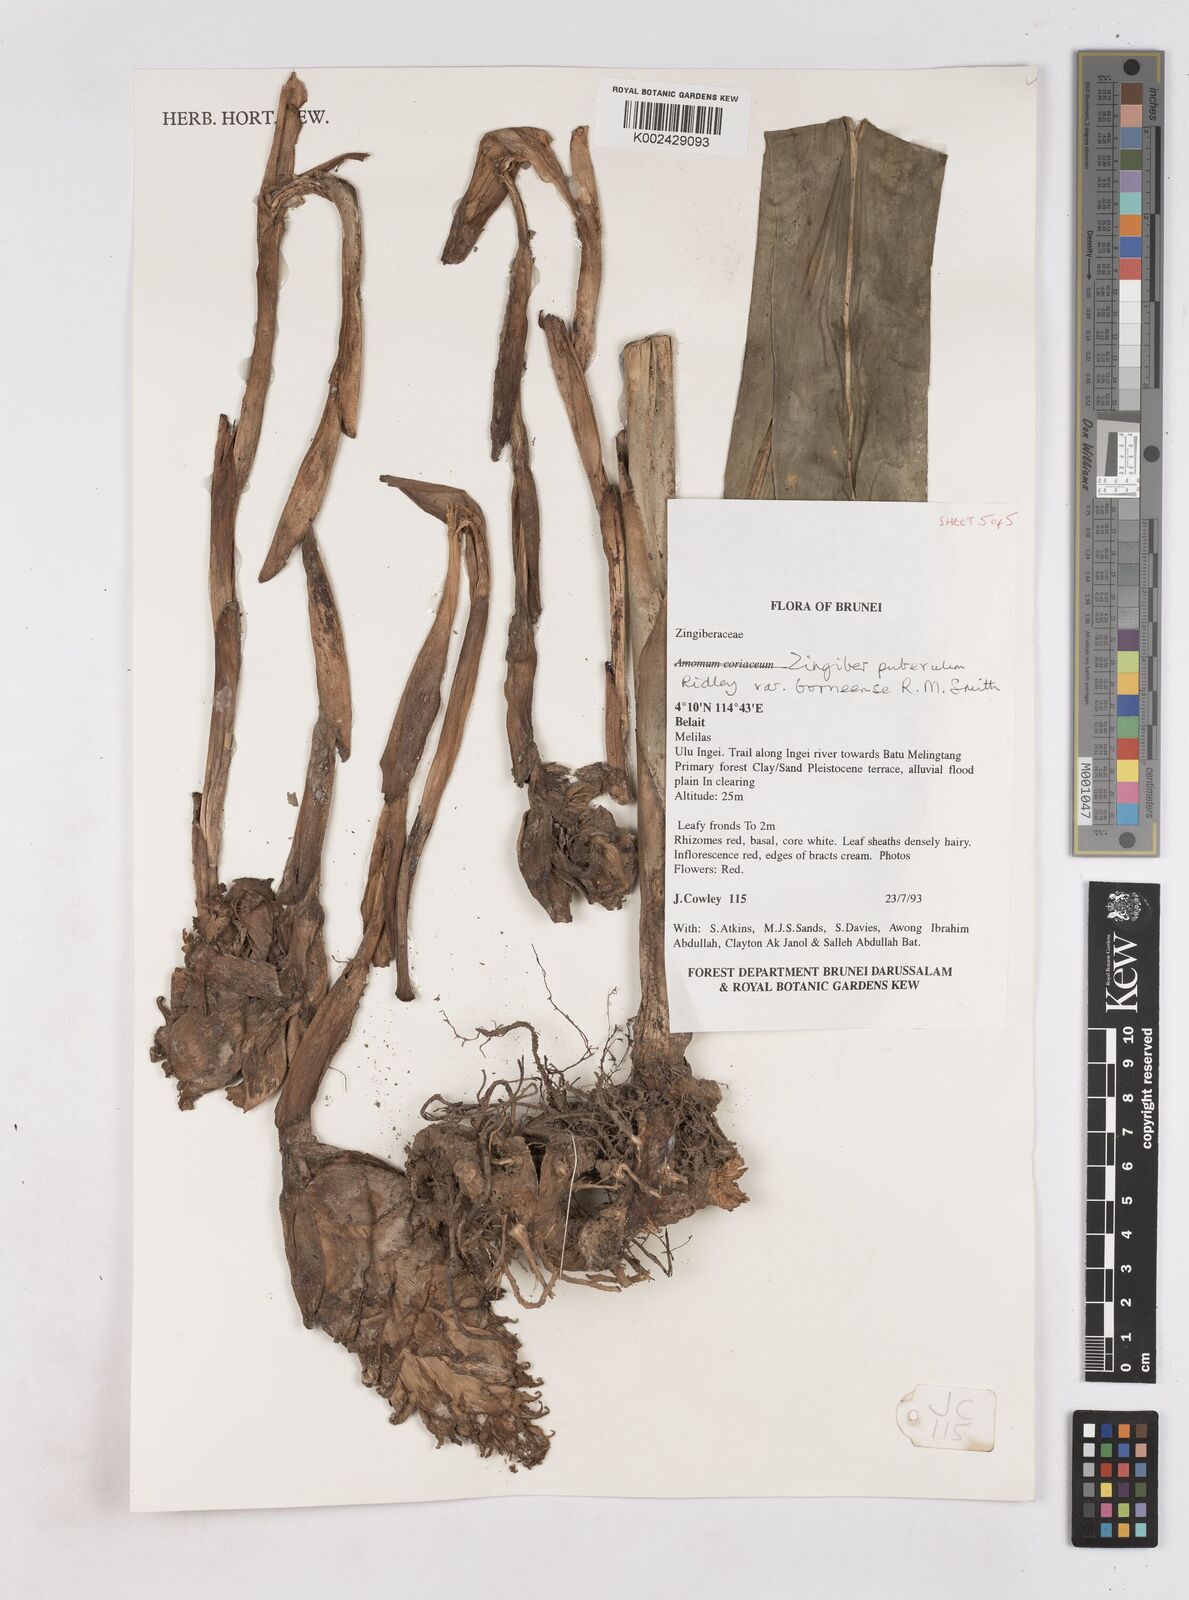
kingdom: Plantae
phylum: Tracheophyta
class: Liliopsida
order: Zingiberales
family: Zingiberaceae
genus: Zingiber
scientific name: Zingiber puberulum
